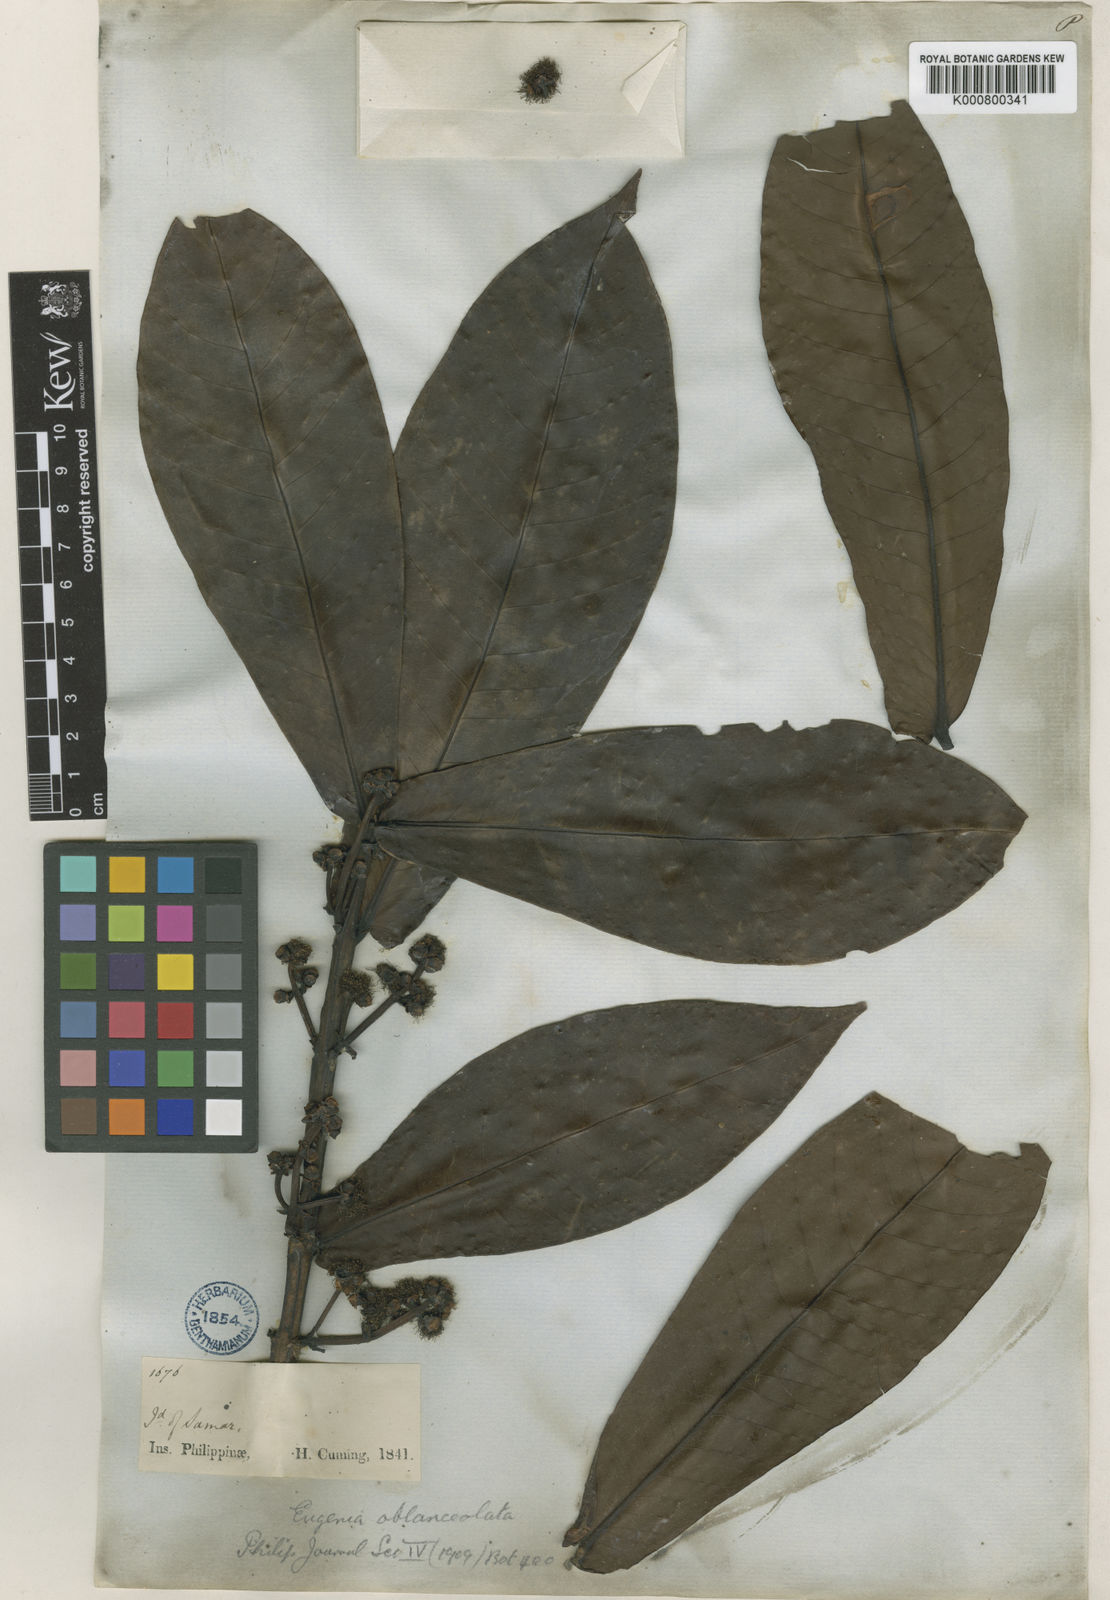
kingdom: Plantae
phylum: Tracheophyta
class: Magnoliopsida
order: Myrtales
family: Myrtaceae
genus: Syzygium
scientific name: Syzygium oblanceolatum
